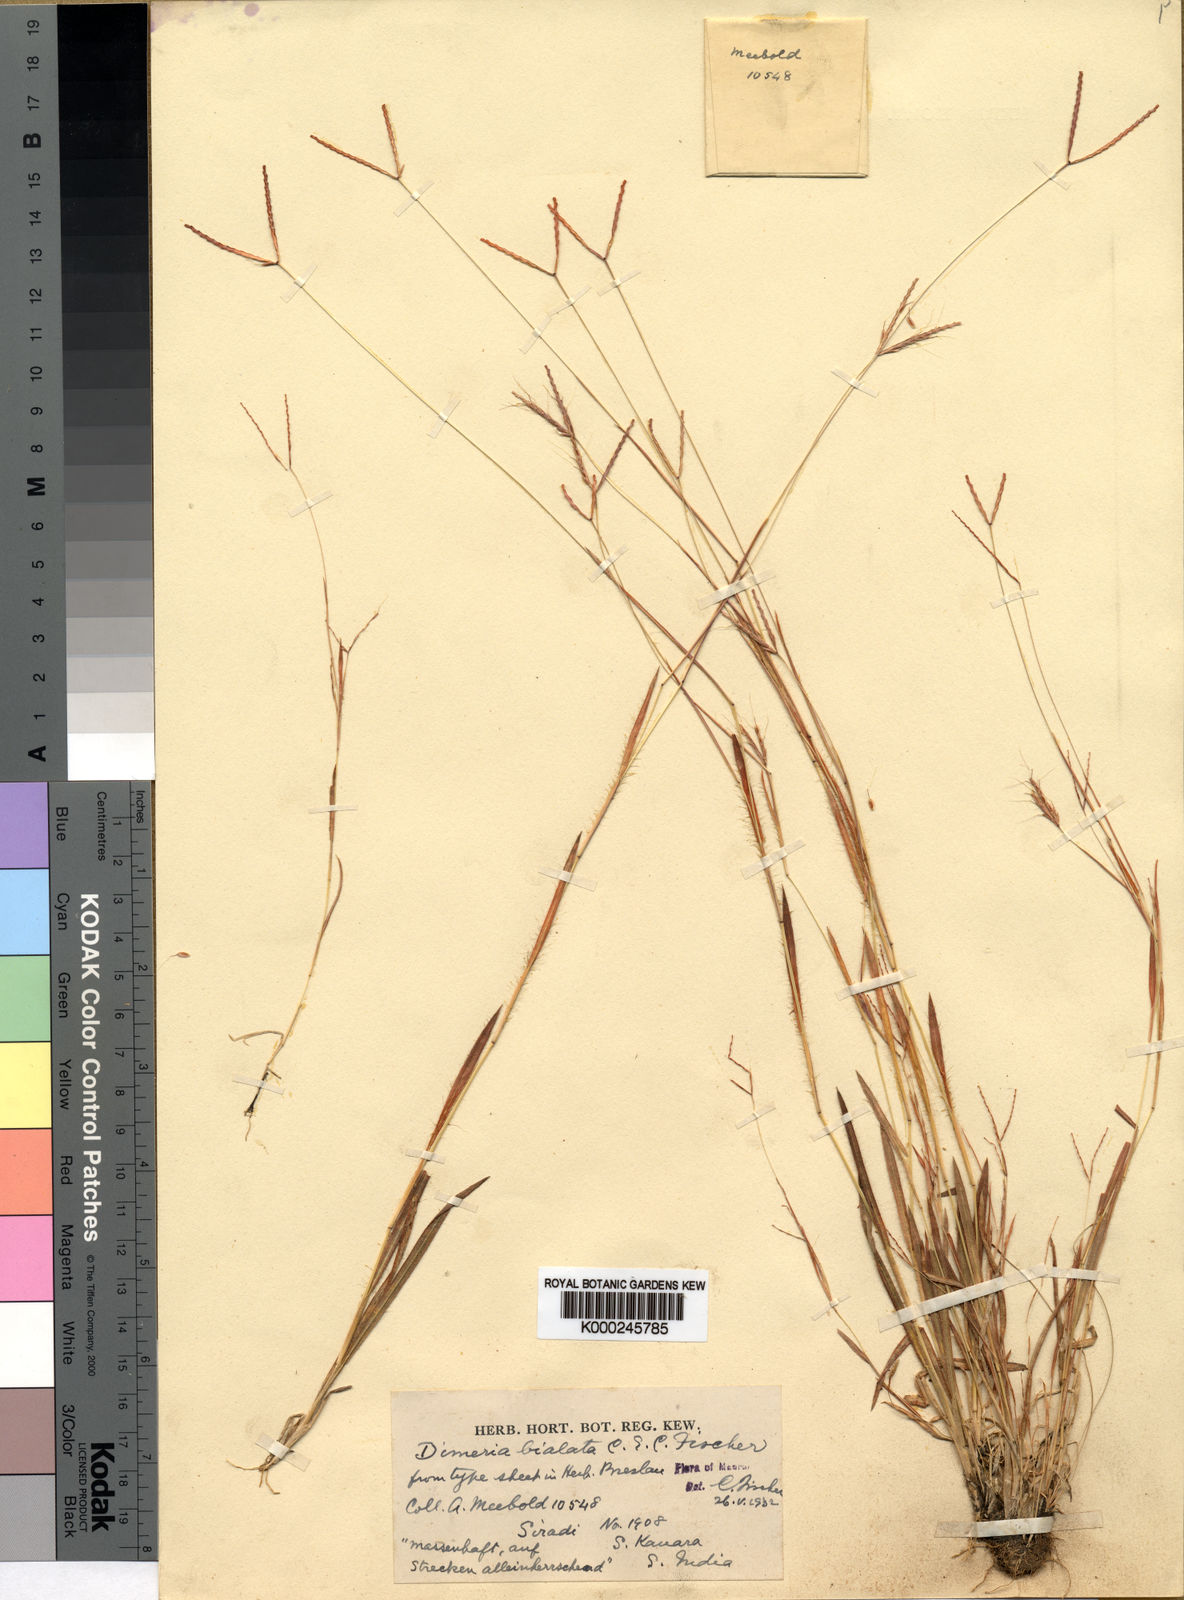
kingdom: Plantae
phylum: Tracheophyta
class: Liliopsida
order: Poales
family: Poaceae
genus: Dimeria
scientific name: Dimeria bialata
